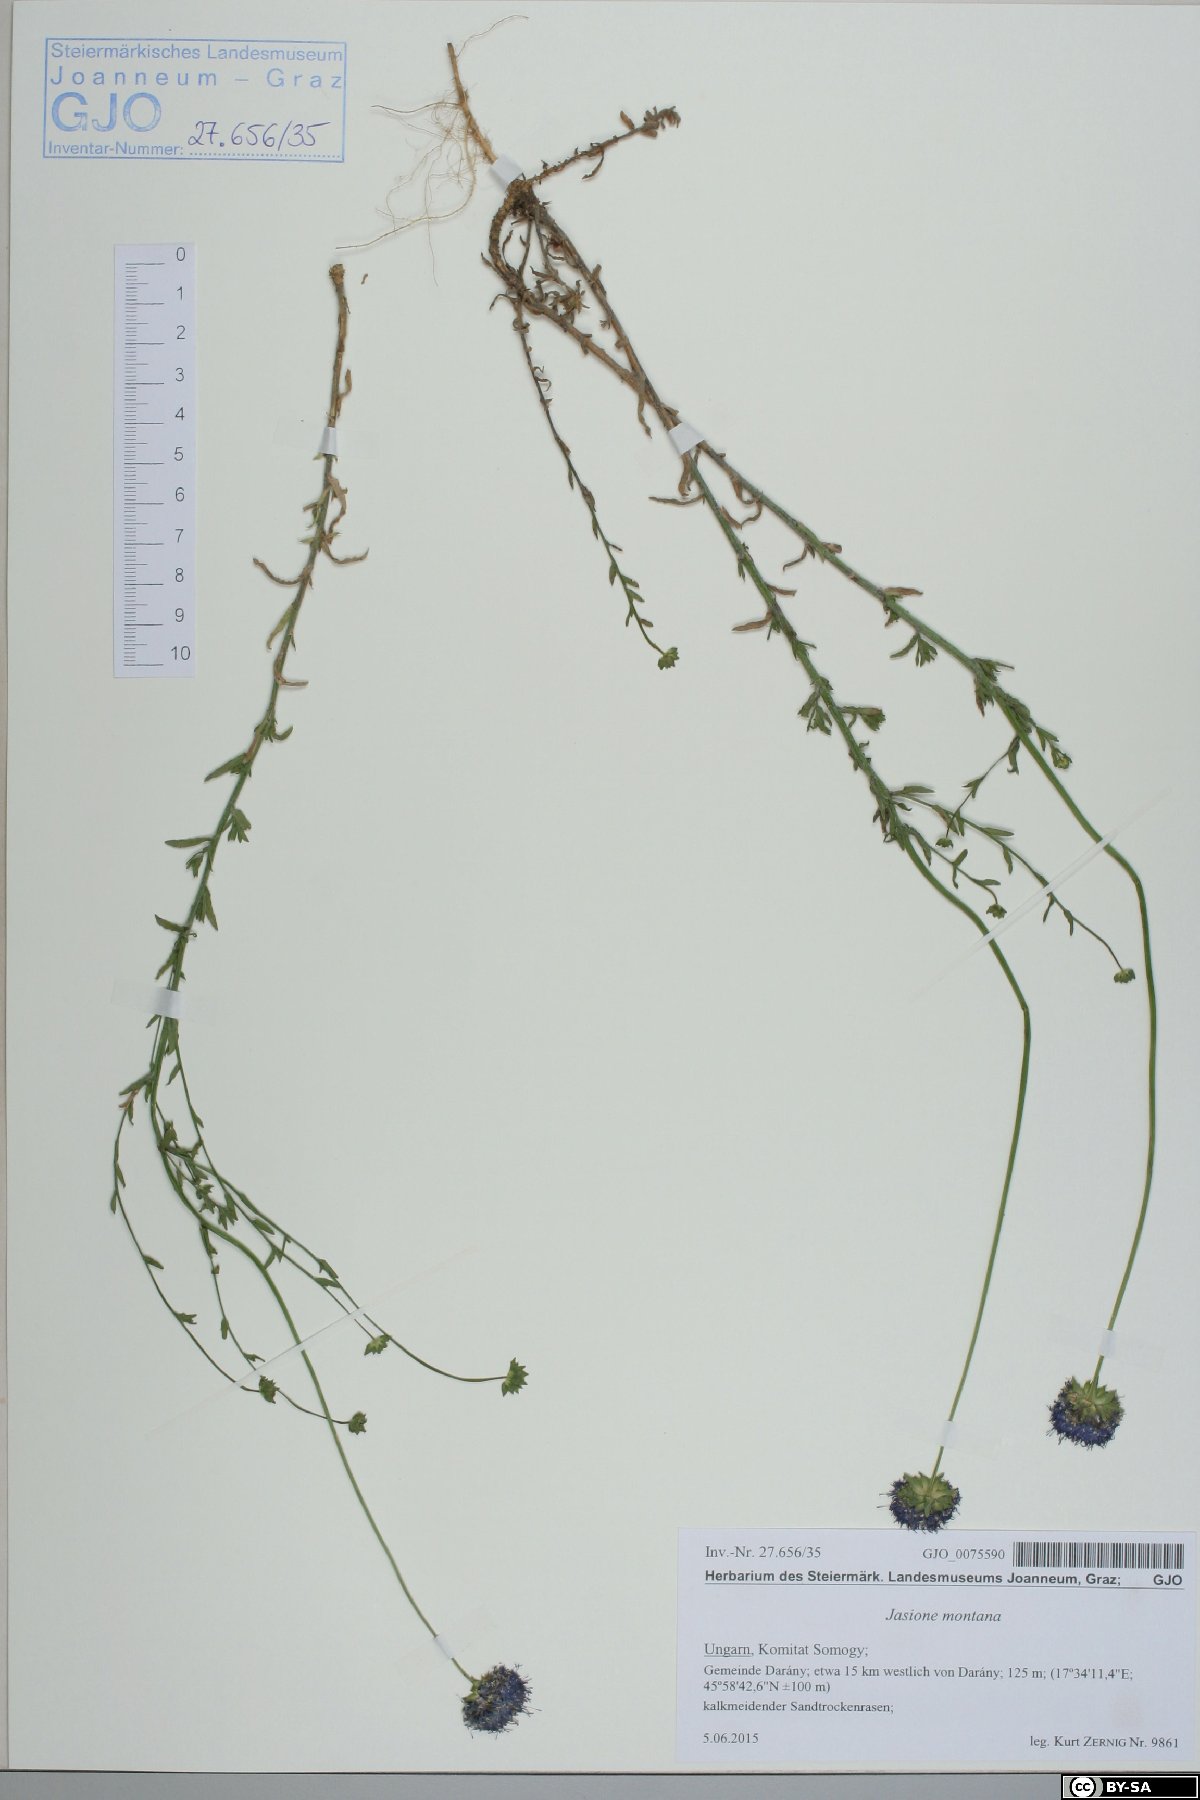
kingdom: Plantae
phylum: Tracheophyta
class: Magnoliopsida
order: Asterales
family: Campanulaceae
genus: Jasione
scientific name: Jasione montana
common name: Sheep's-bit
